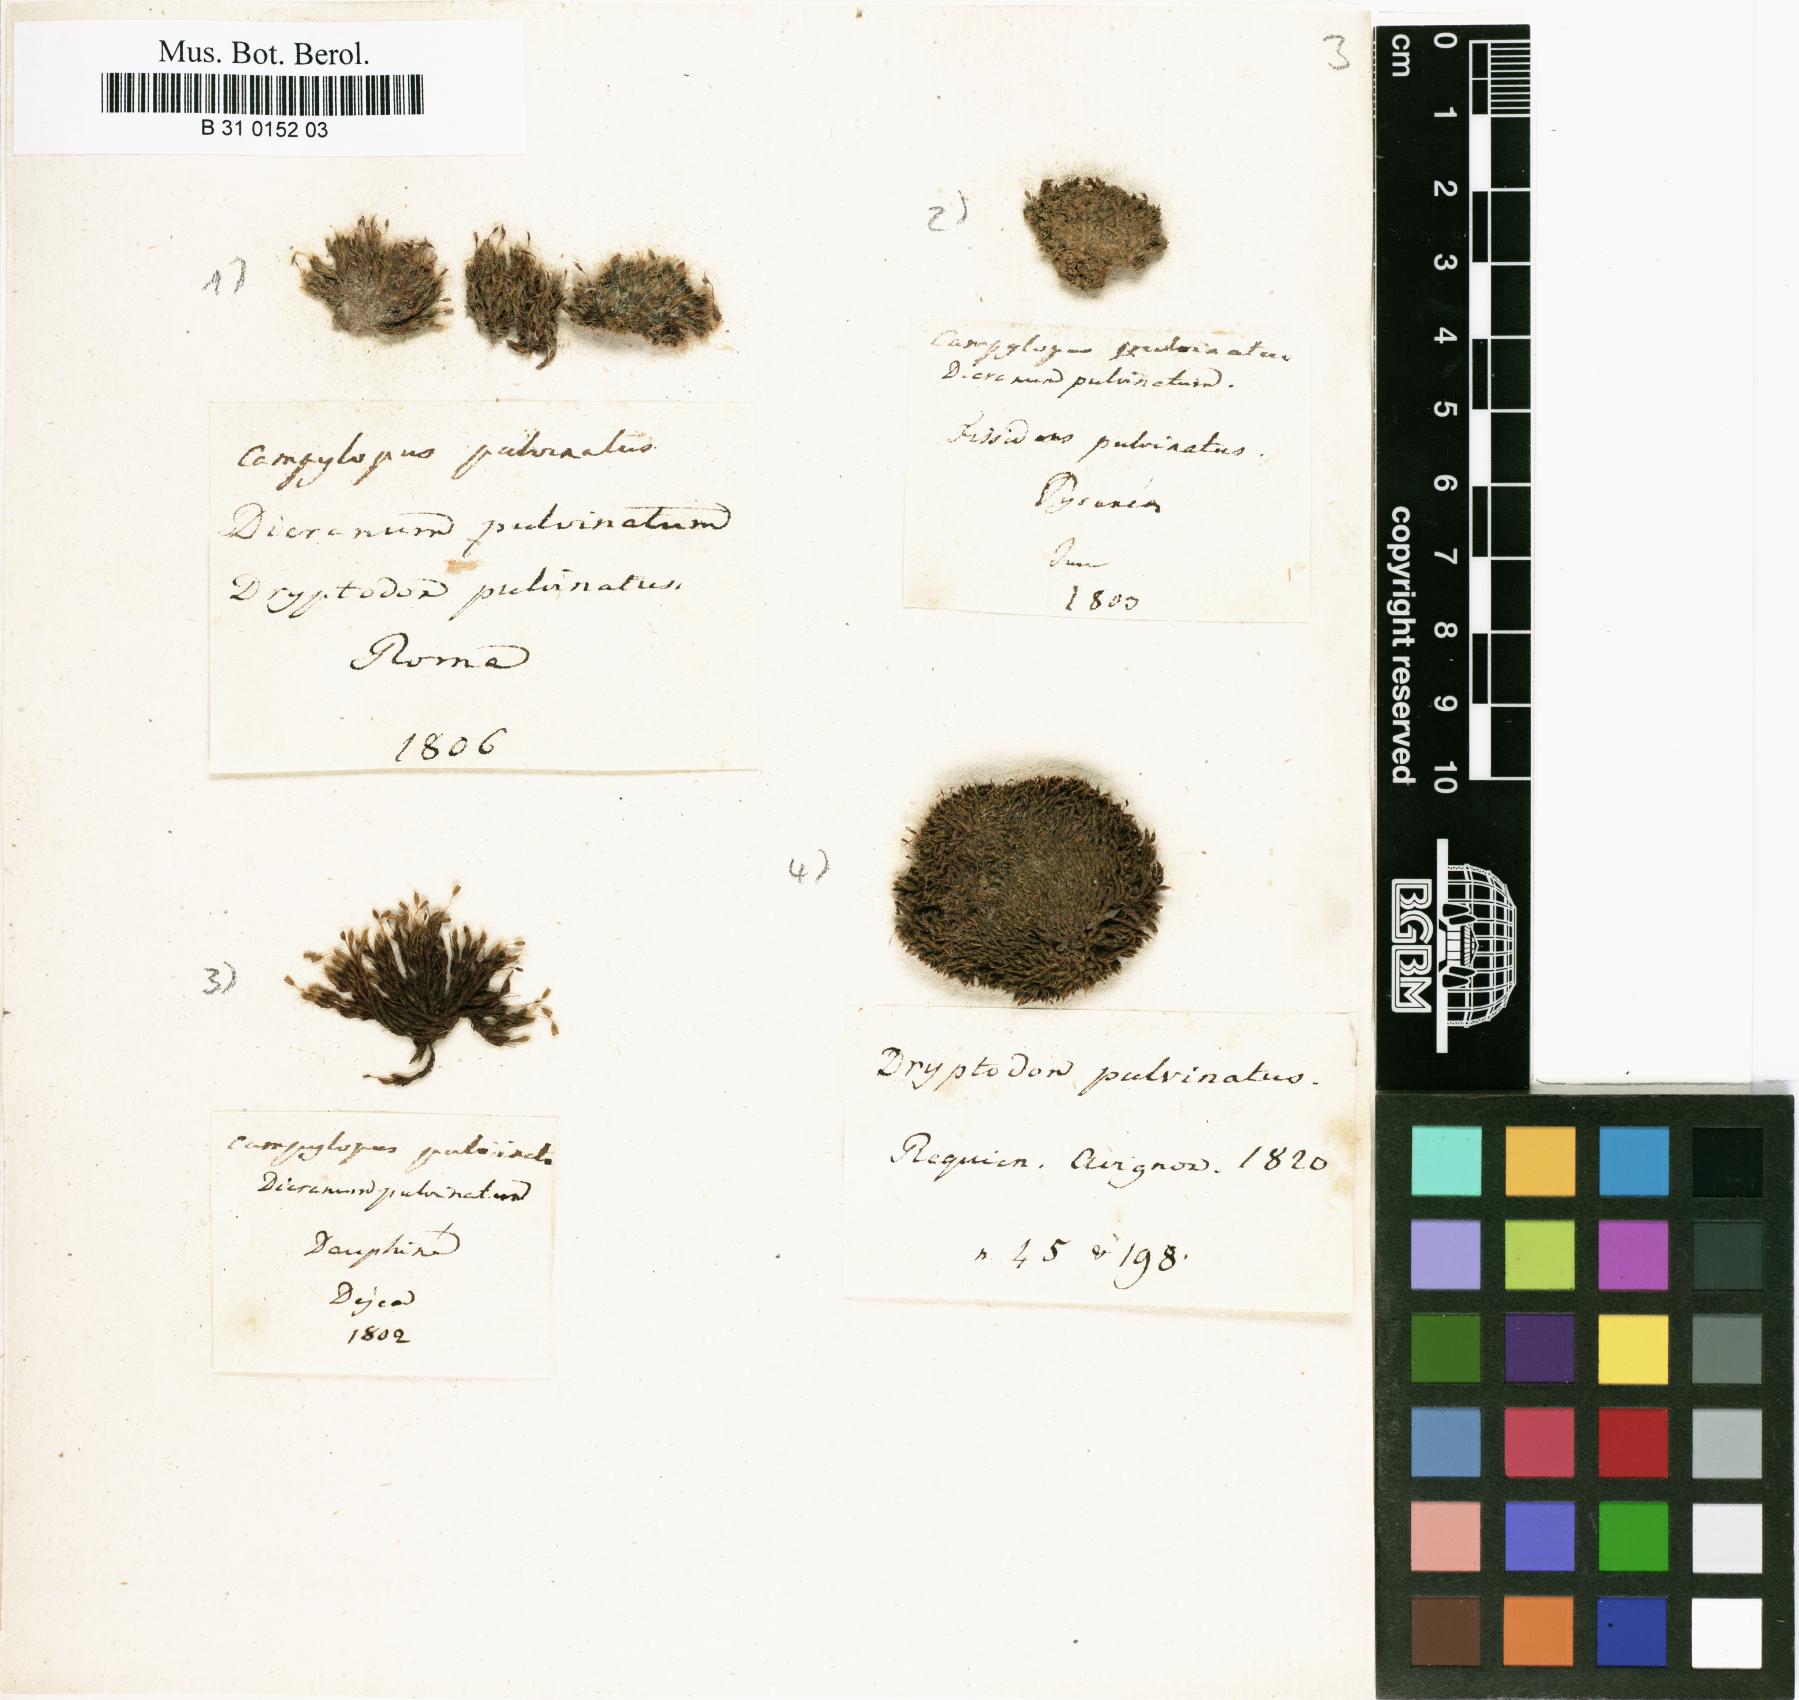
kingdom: Plantae
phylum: Bryophyta
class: Bryopsida
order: Grimmiales
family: Grimmiaceae
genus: Grimmia
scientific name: Grimmia pulvinata
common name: Grey-cushioned grimmia
